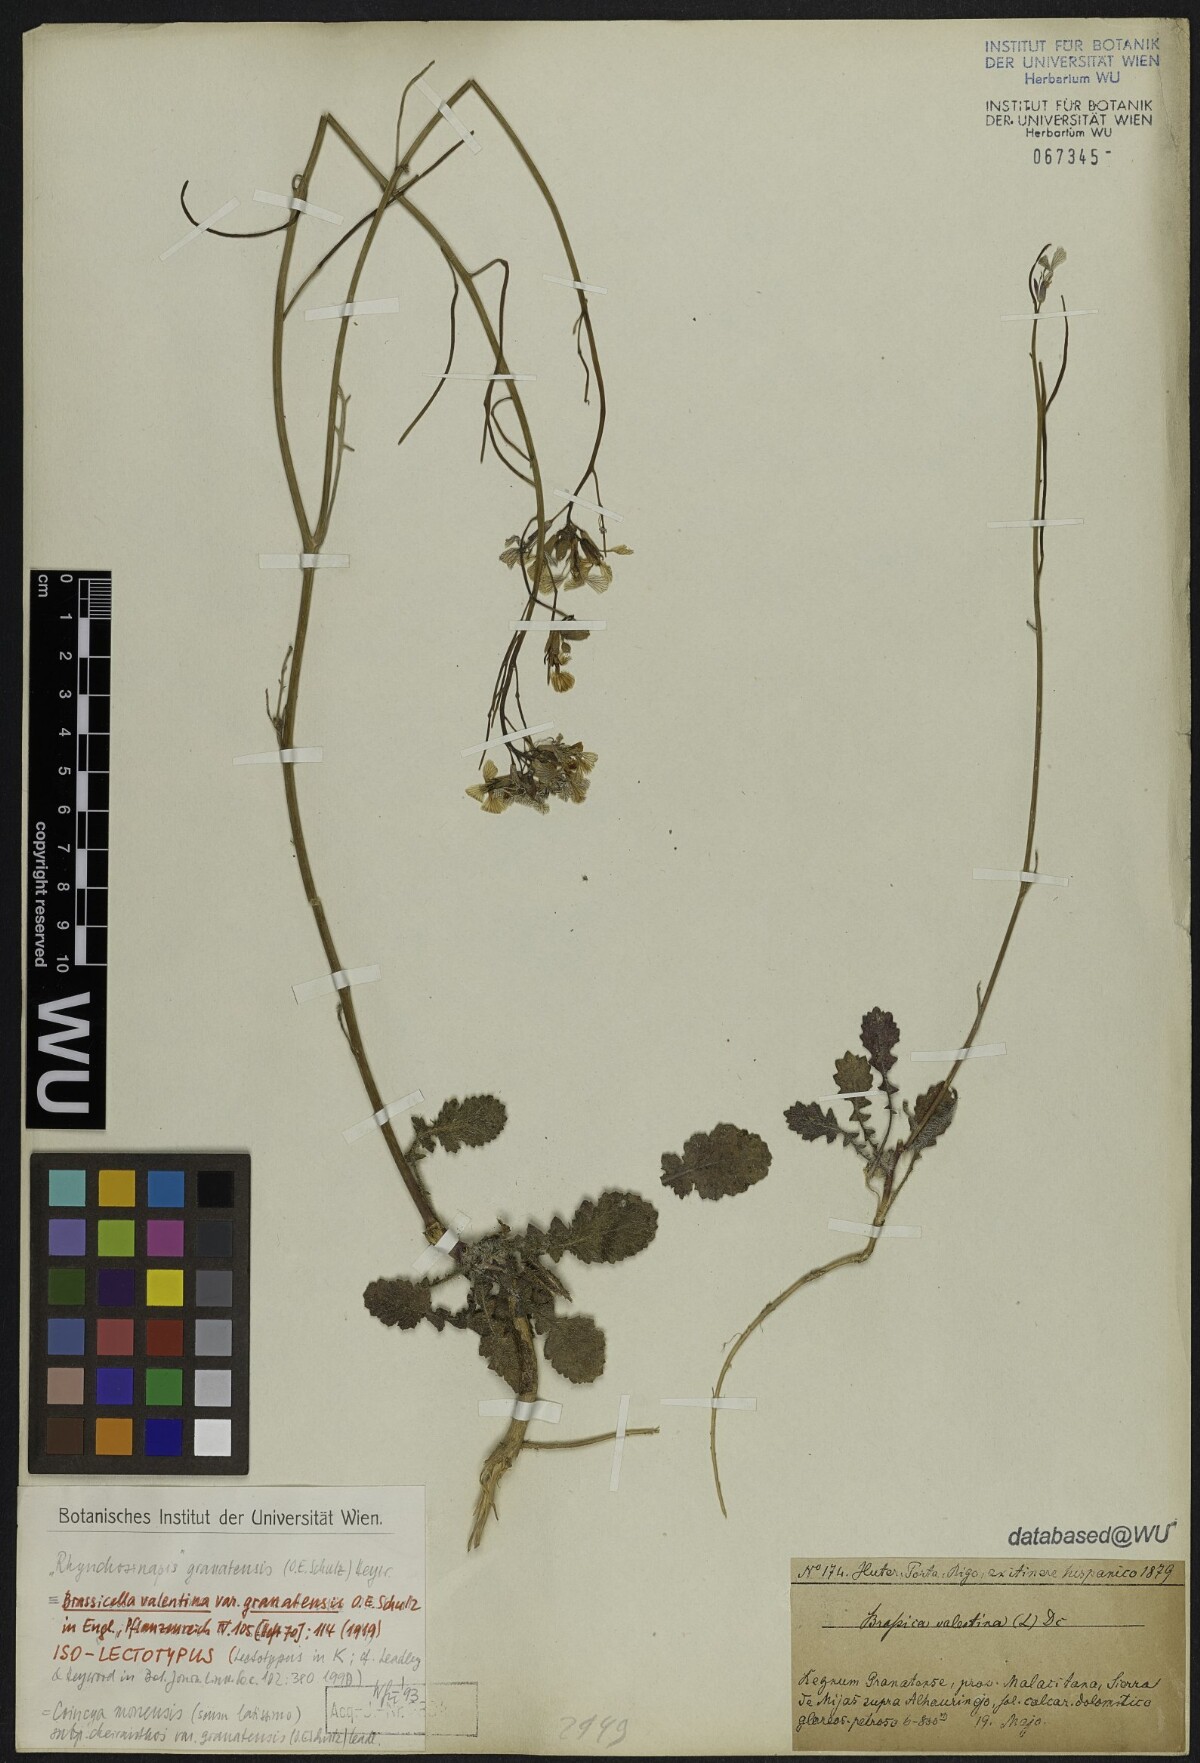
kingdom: Plantae
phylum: Tracheophyta
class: Magnoliopsida
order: Brassicales
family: Brassicaceae
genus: Coincya
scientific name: Coincya monensis
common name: Star-mustard
